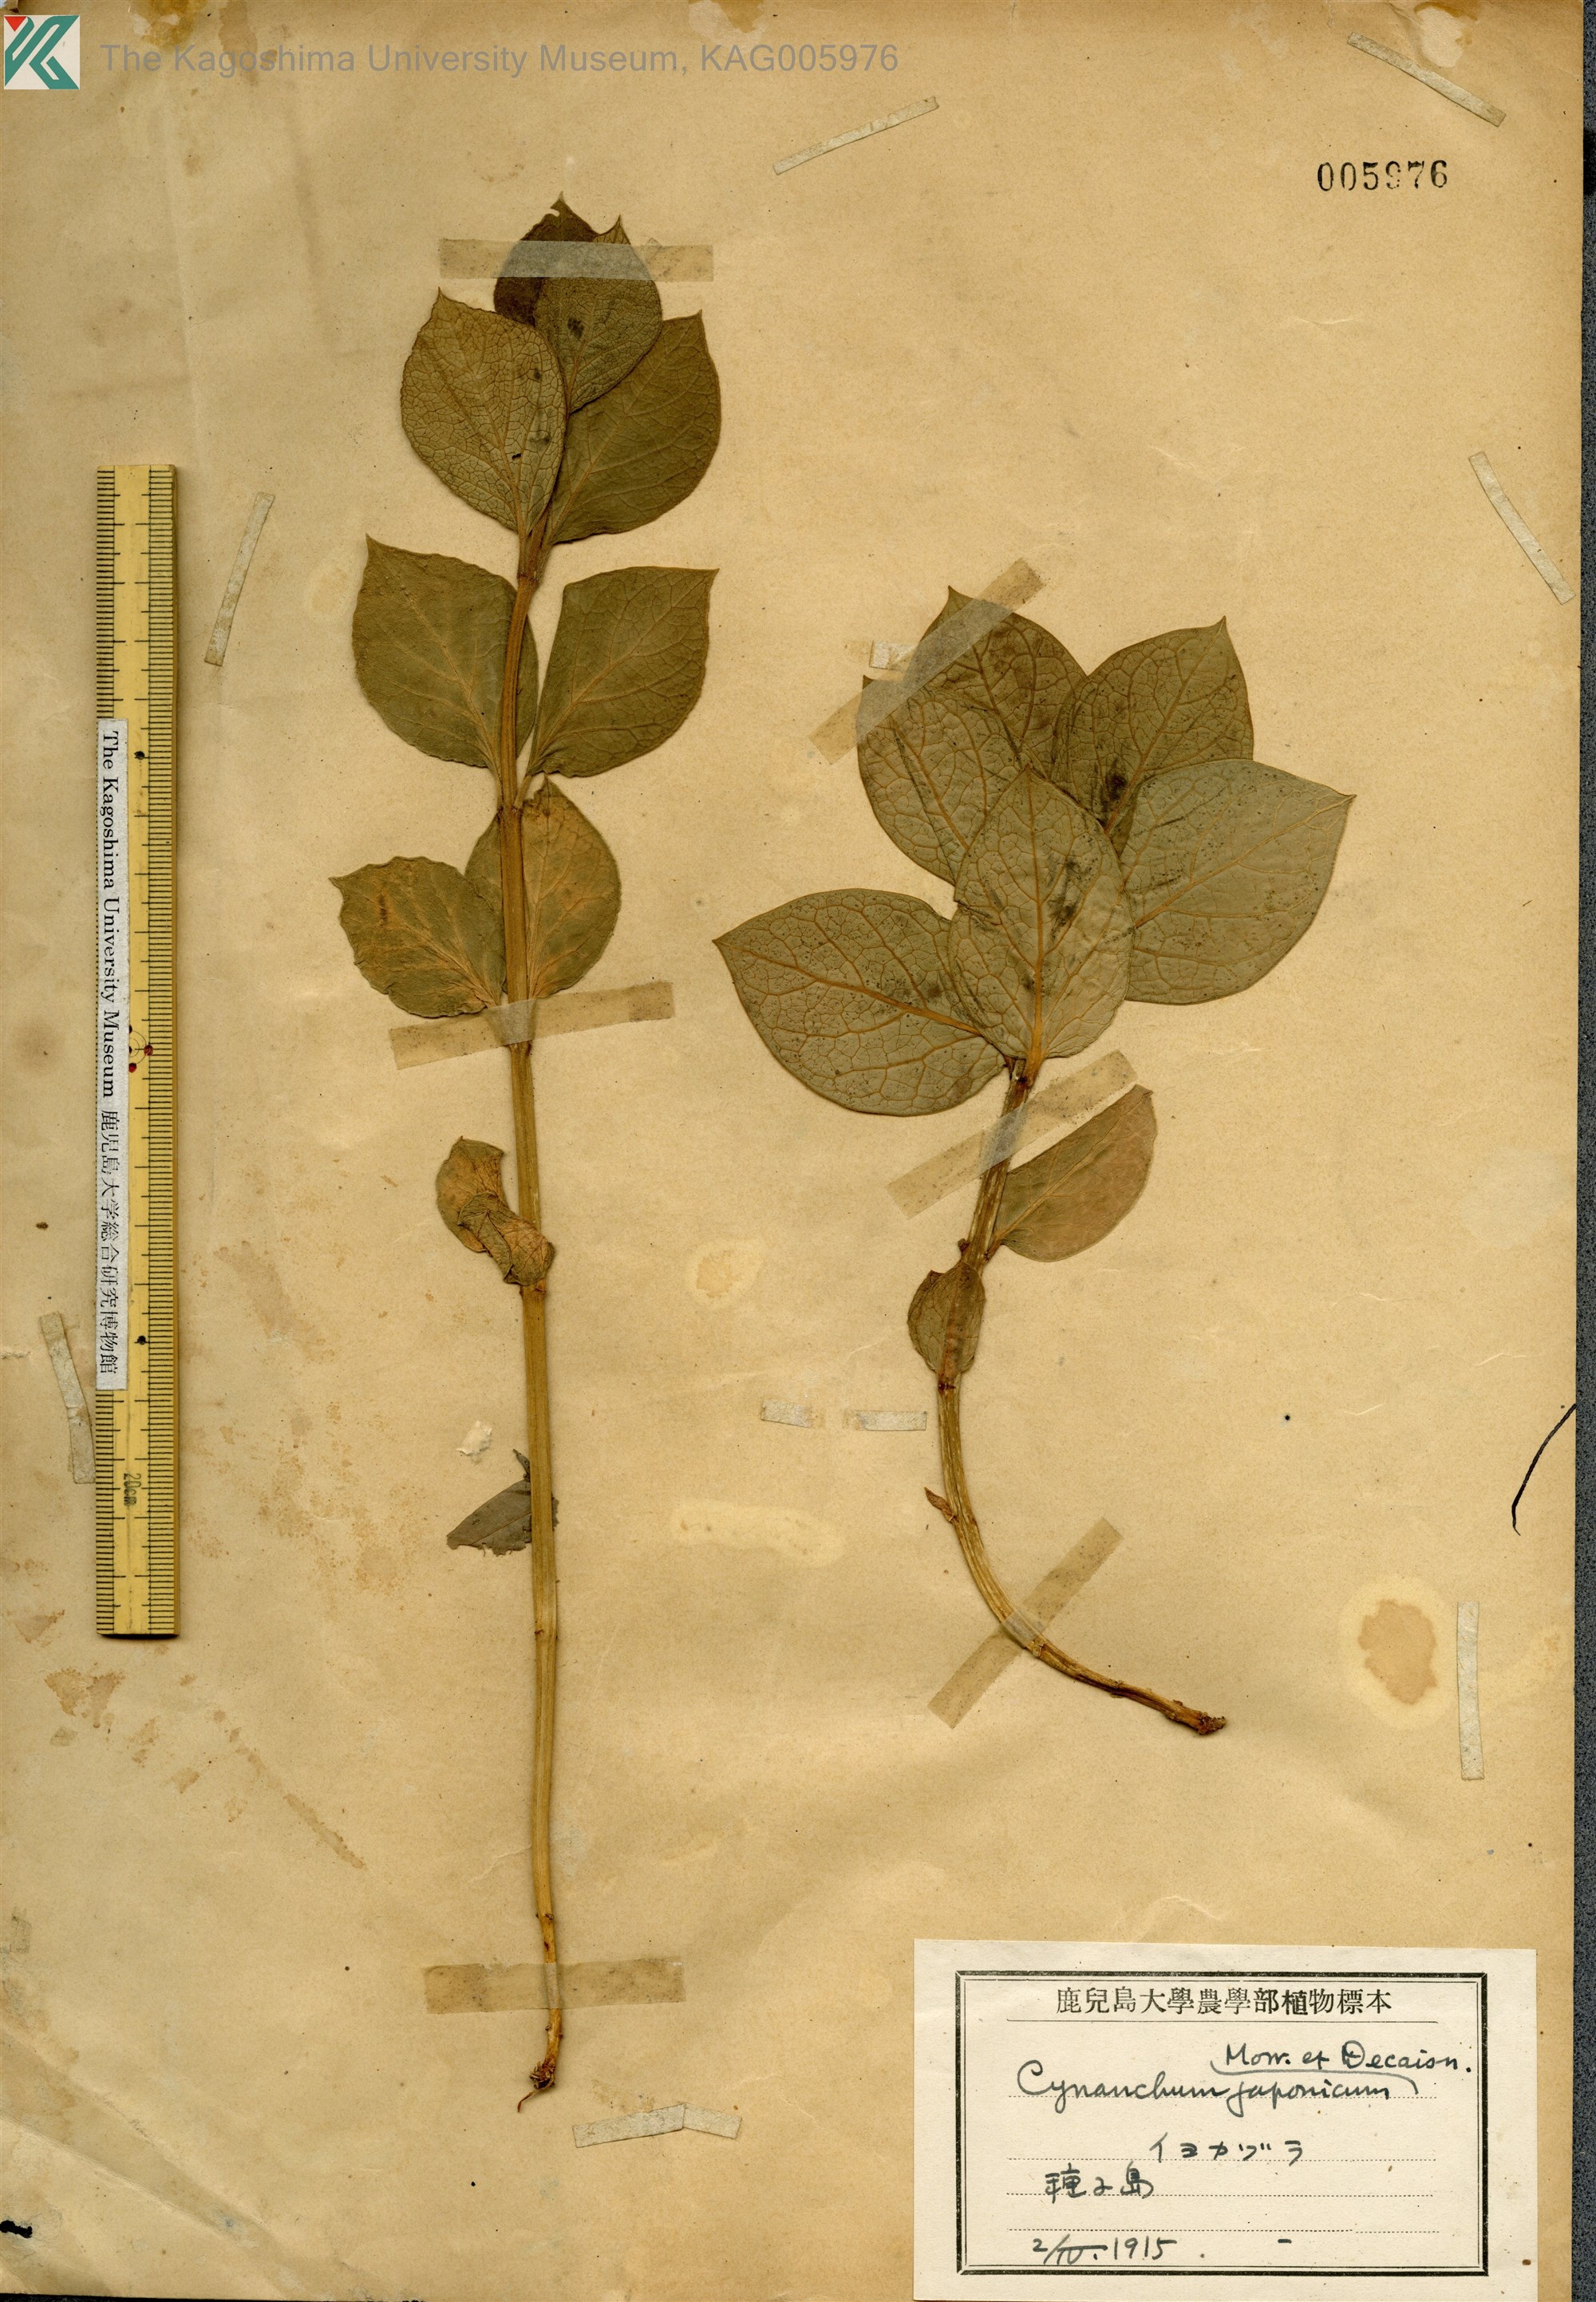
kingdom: Plantae
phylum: Tracheophyta
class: Magnoliopsida
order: Gentianales
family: Apocynaceae
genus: Vincetoxicum
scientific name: Vincetoxicum japonicum
